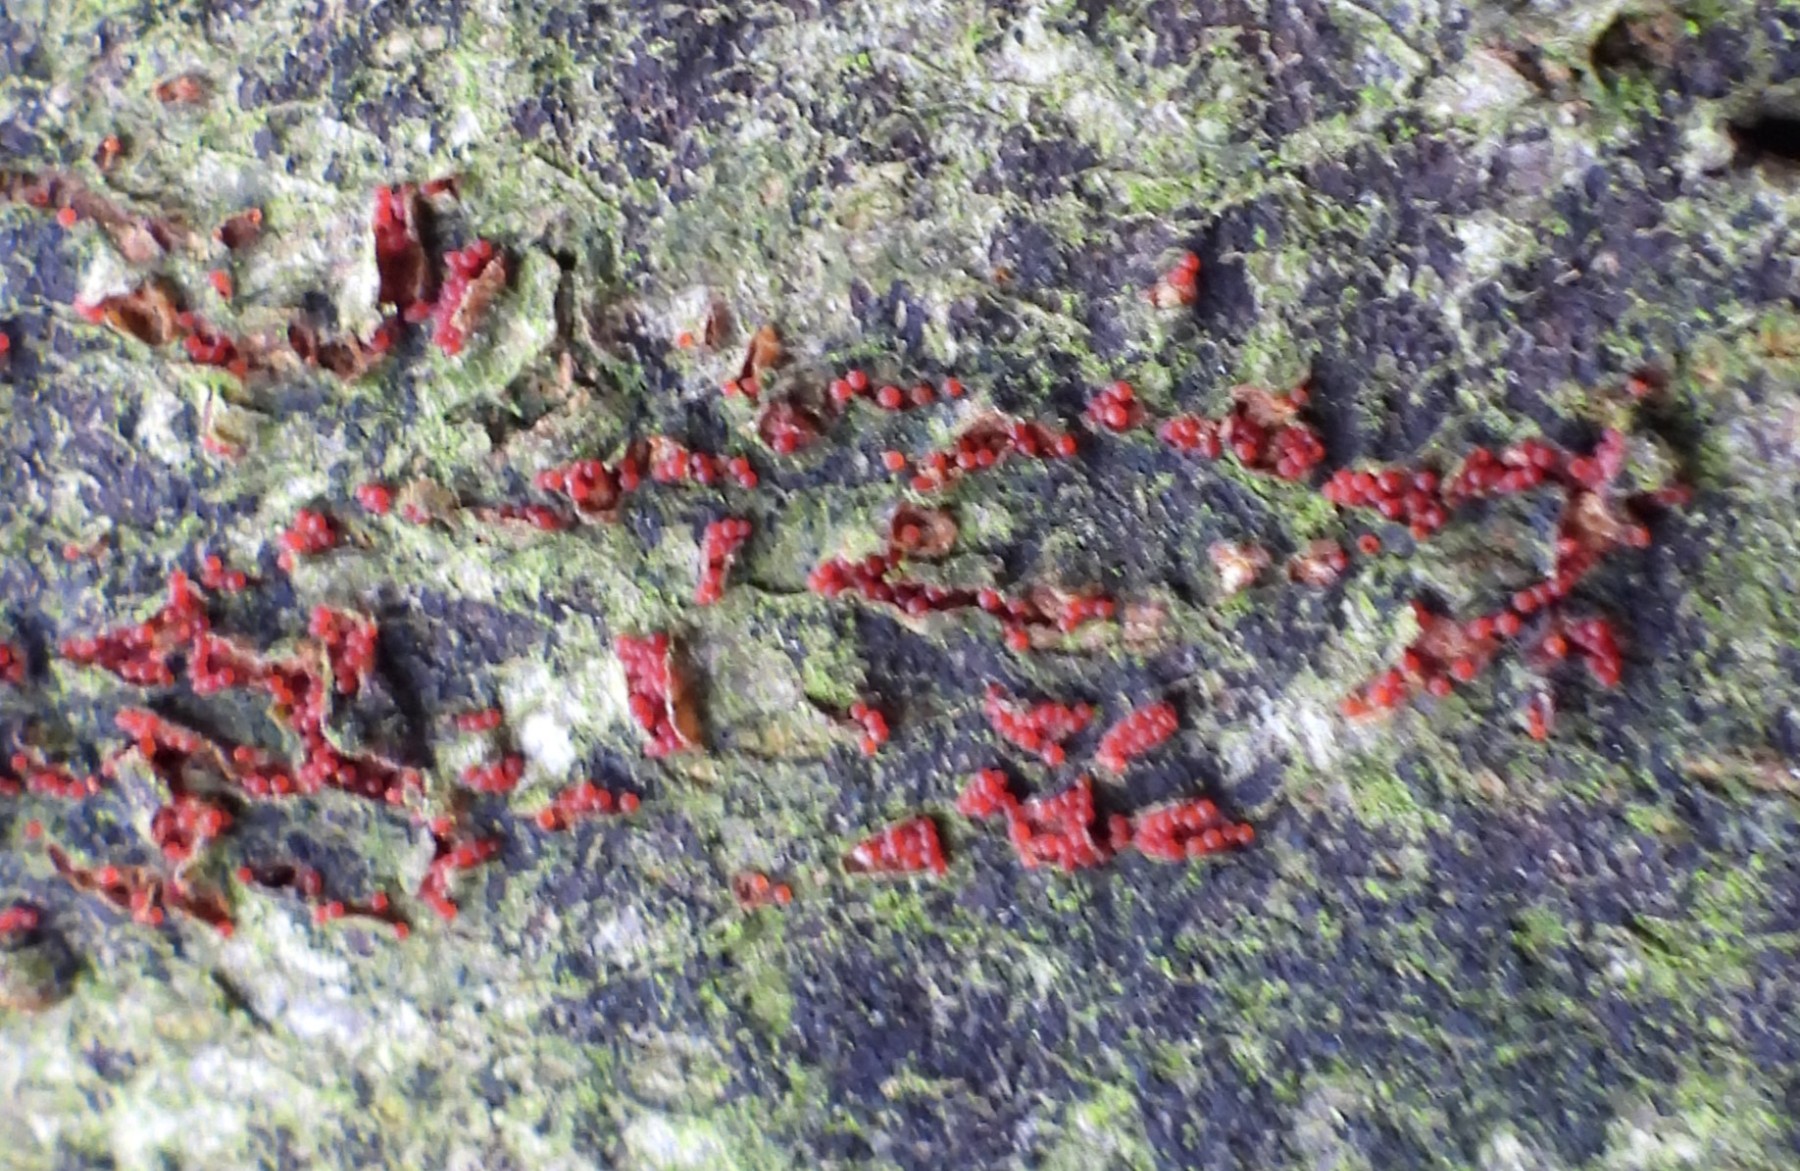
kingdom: Fungi
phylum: Ascomycota
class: Sordariomycetes
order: Hypocreales
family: Nectriaceae
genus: Neonectria
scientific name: Neonectria coccinea
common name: bøgebark-cinnobersvamp
